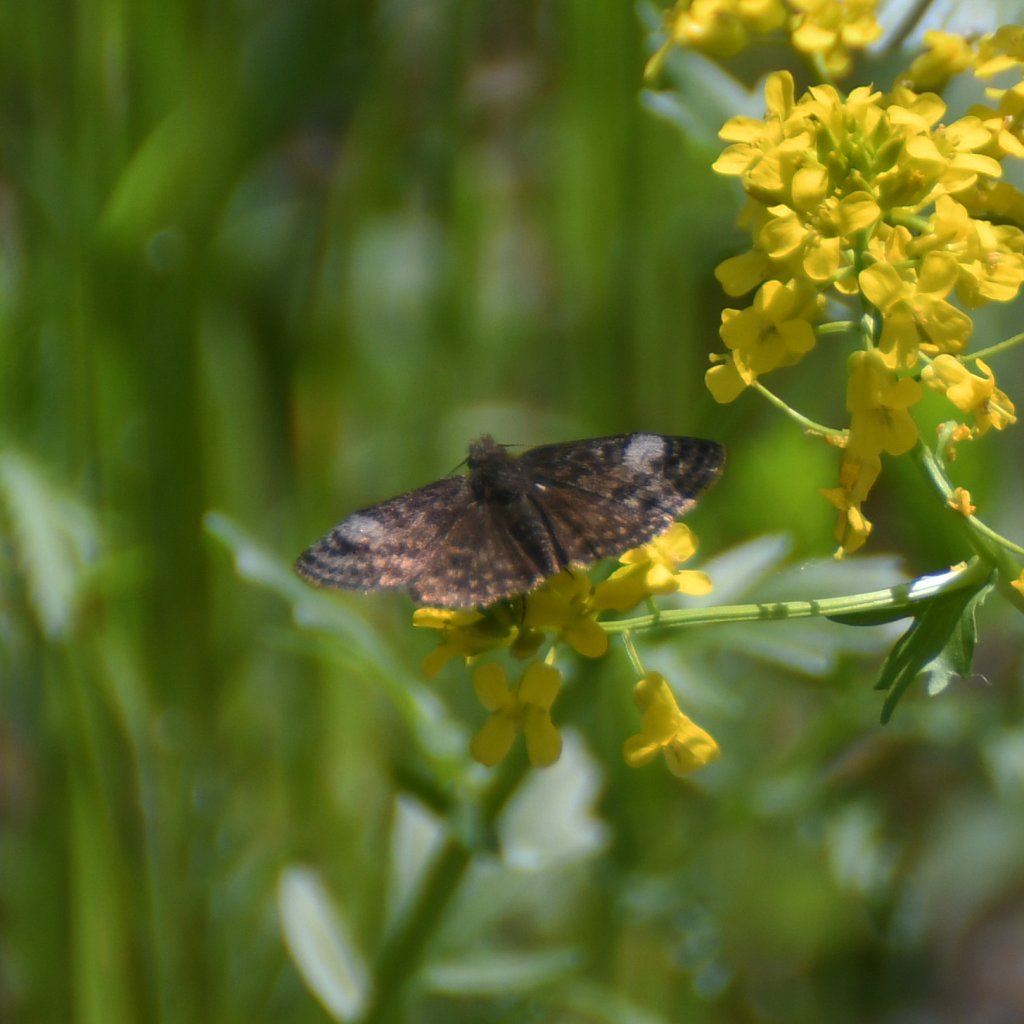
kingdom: Animalia
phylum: Arthropoda
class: Insecta
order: Lepidoptera
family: Hesperiidae
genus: Erynnis
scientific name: Erynnis icelus
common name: Dreamy Duskywing
